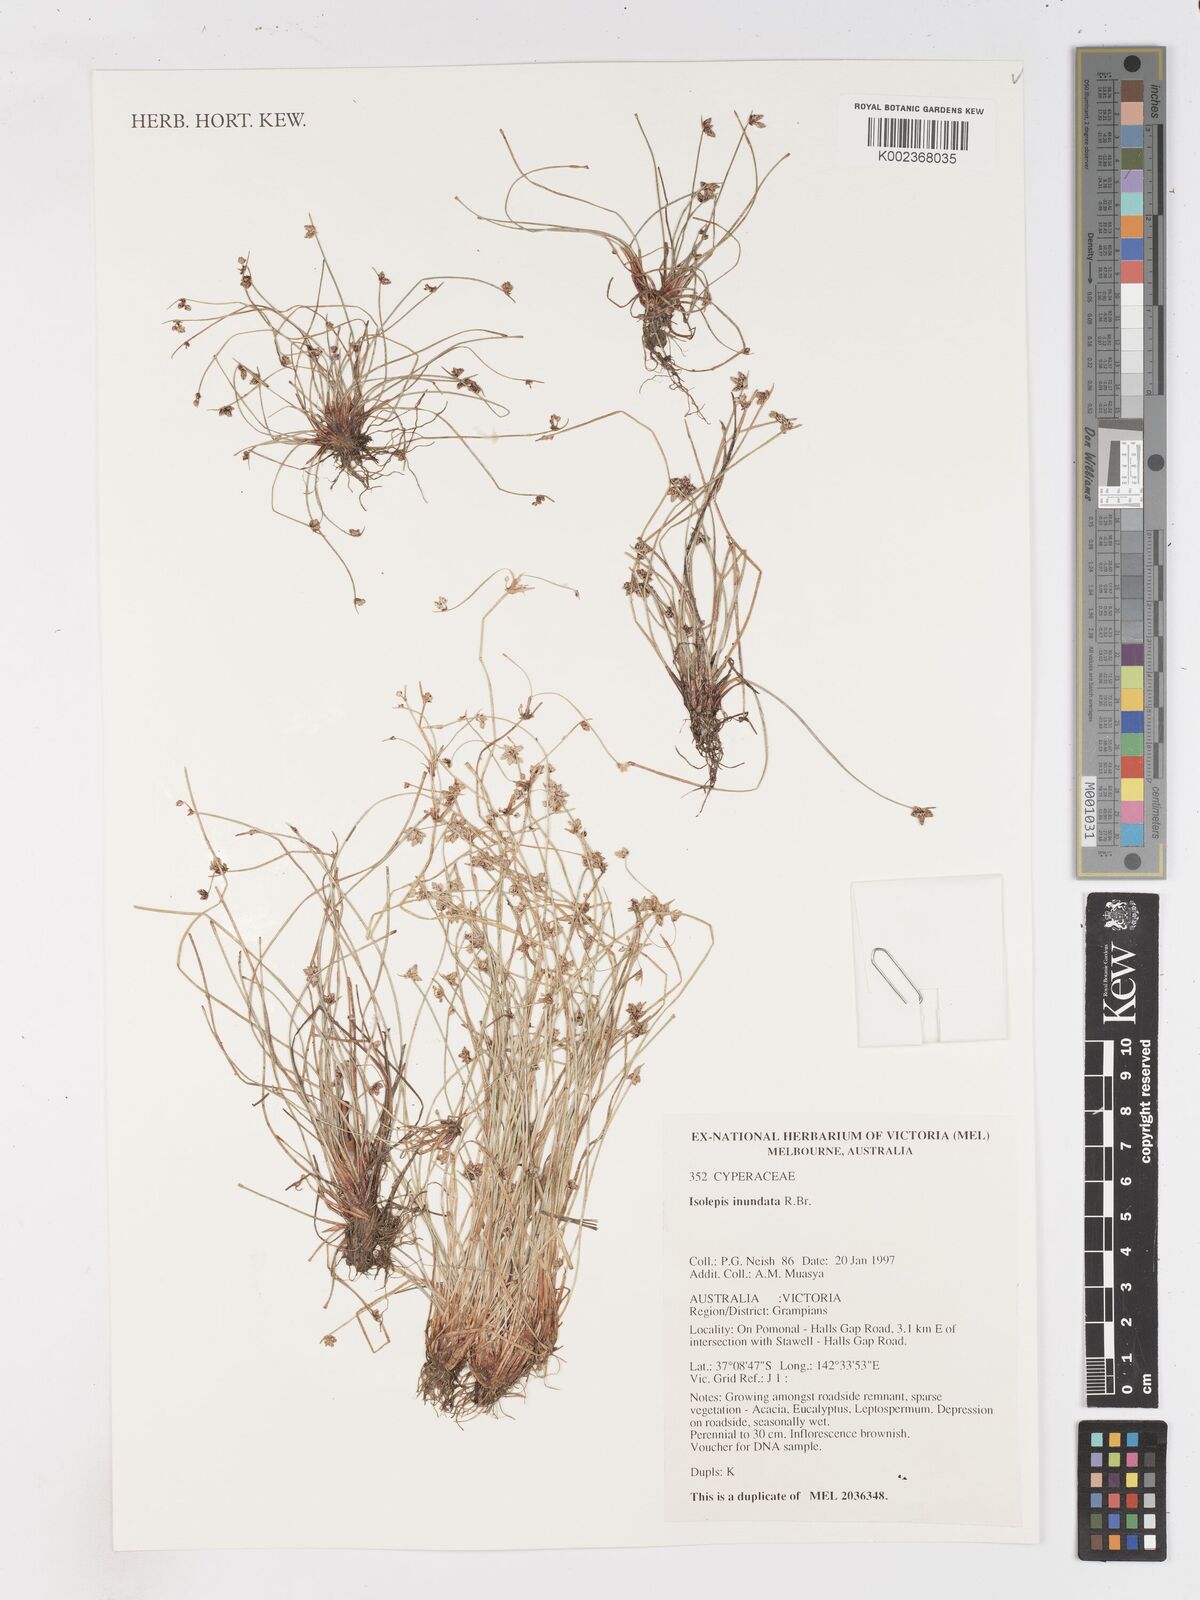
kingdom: Plantae
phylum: Tracheophyta
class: Liliopsida
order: Poales
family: Cyperaceae
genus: Isolepis
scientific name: Isolepis inundata
